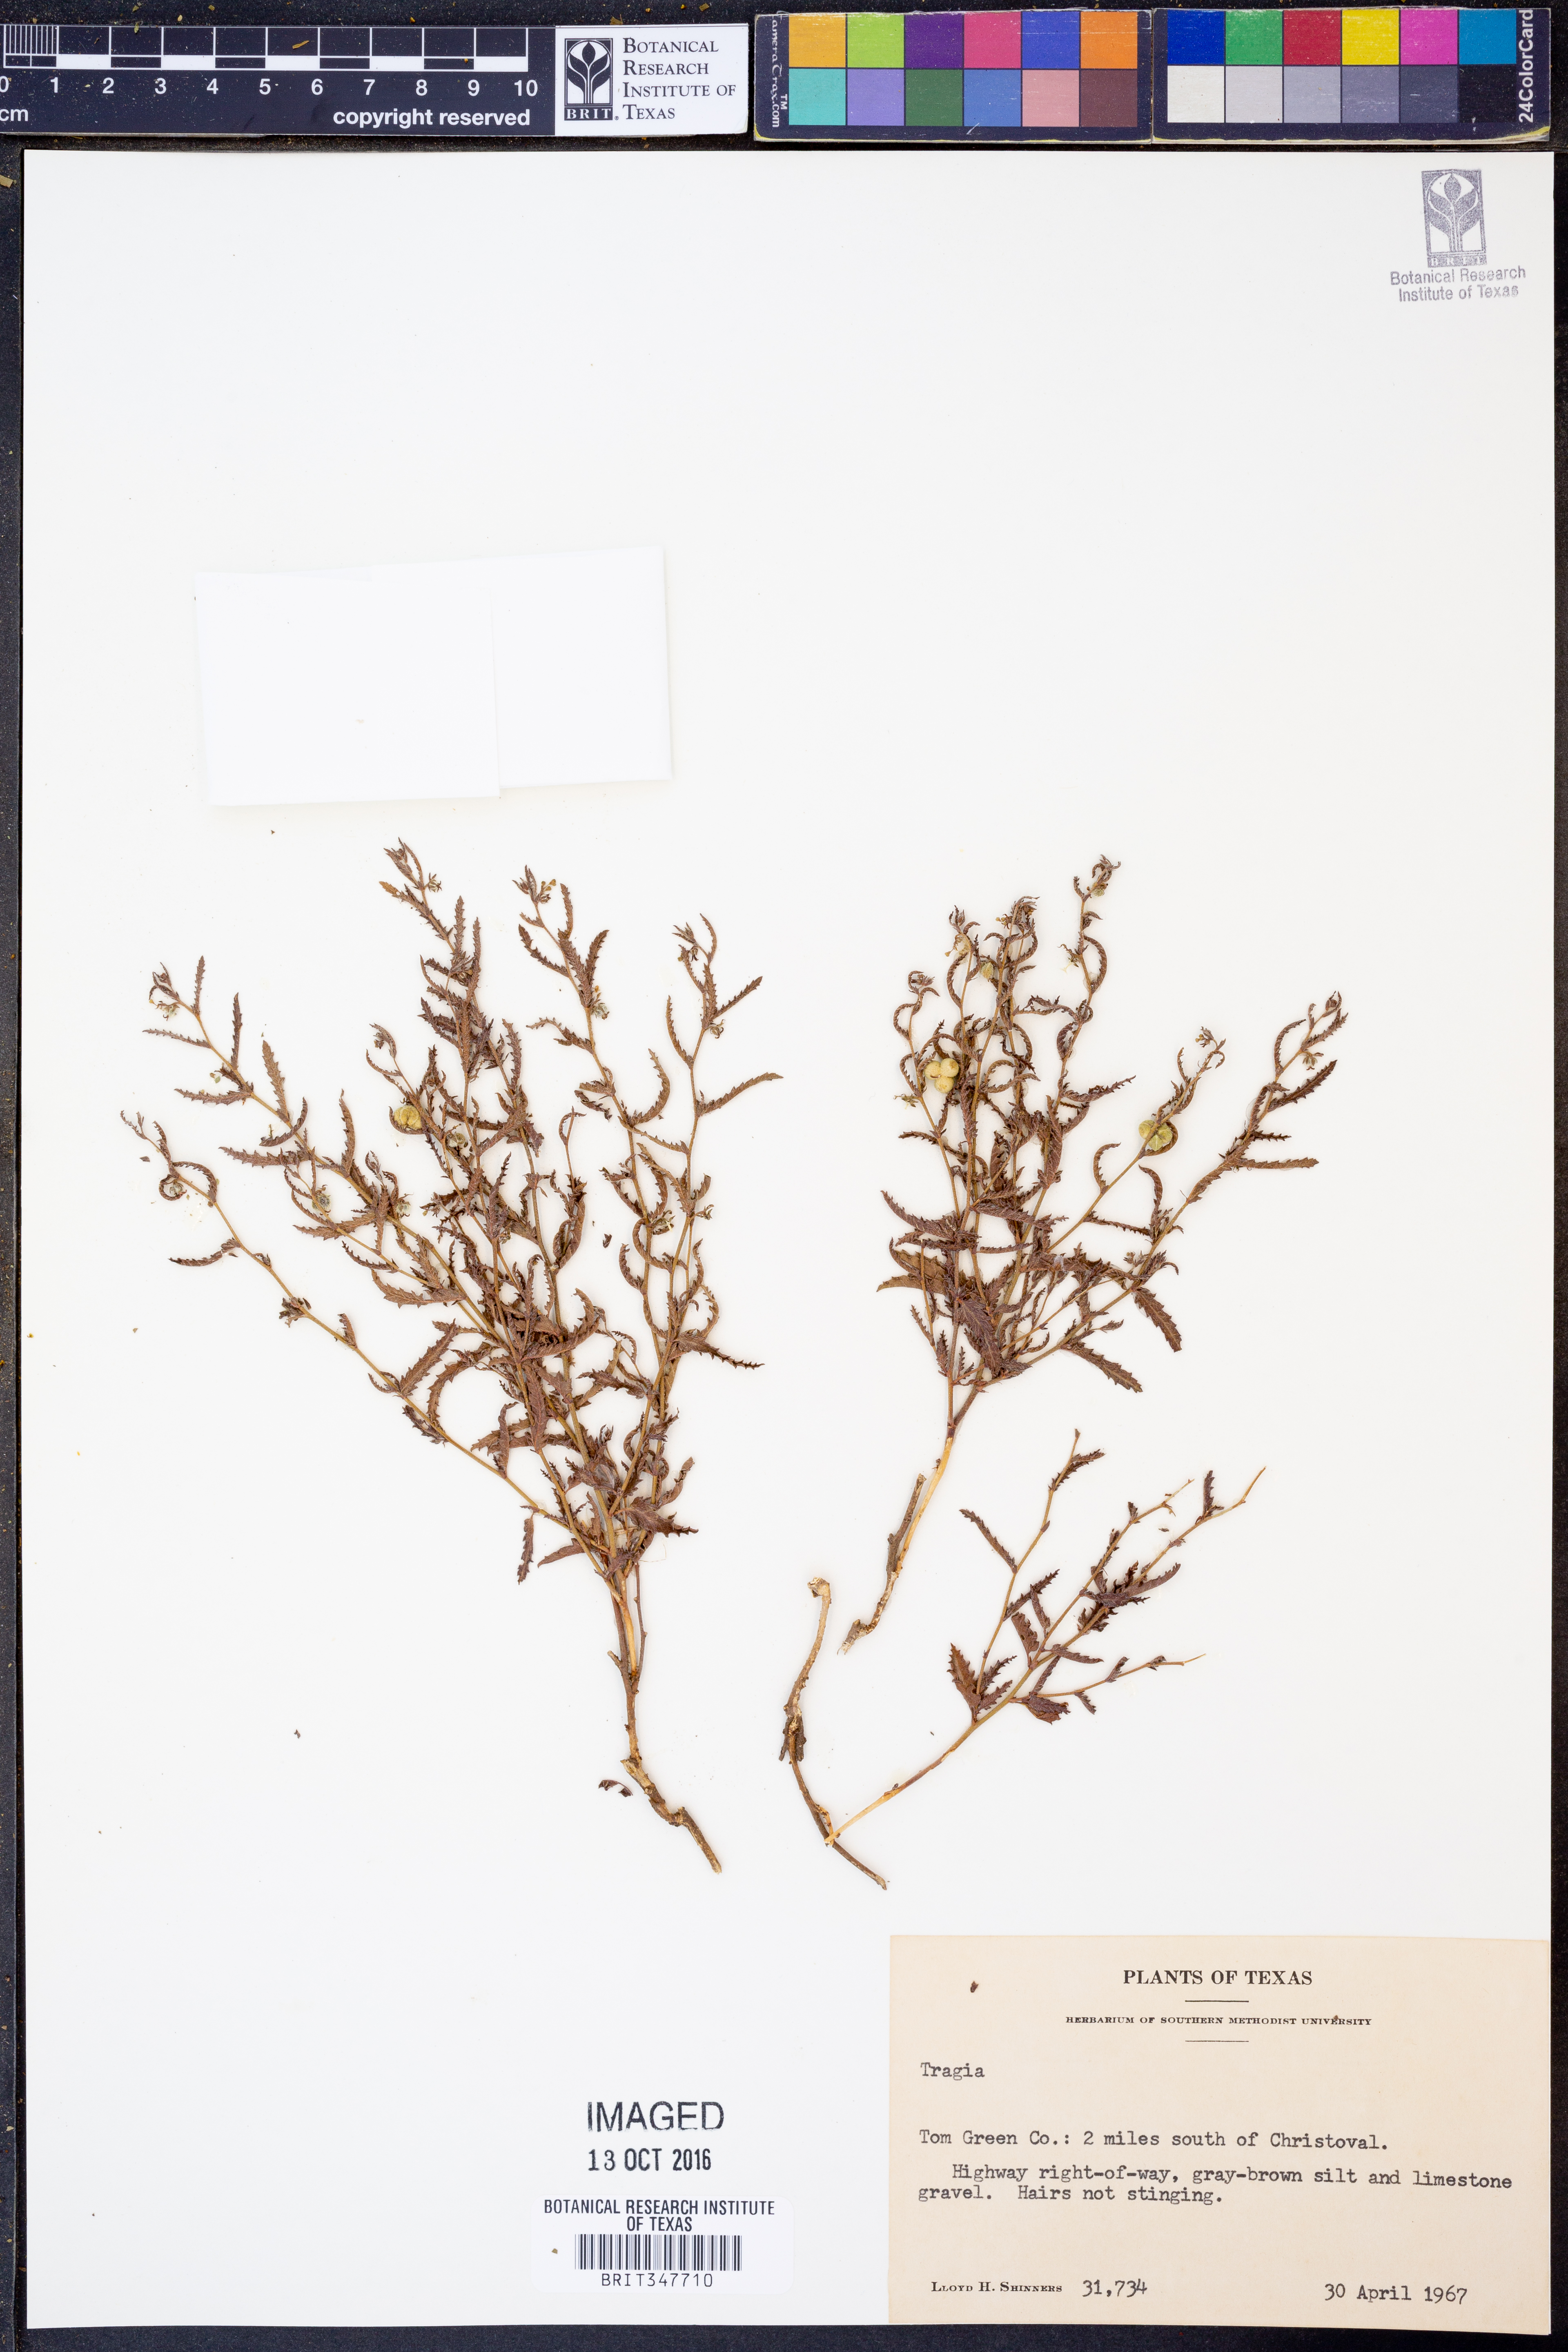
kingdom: Plantae
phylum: Tracheophyta
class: Magnoliopsida
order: Malpighiales
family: Euphorbiaceae
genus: Tragia
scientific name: Tragia
